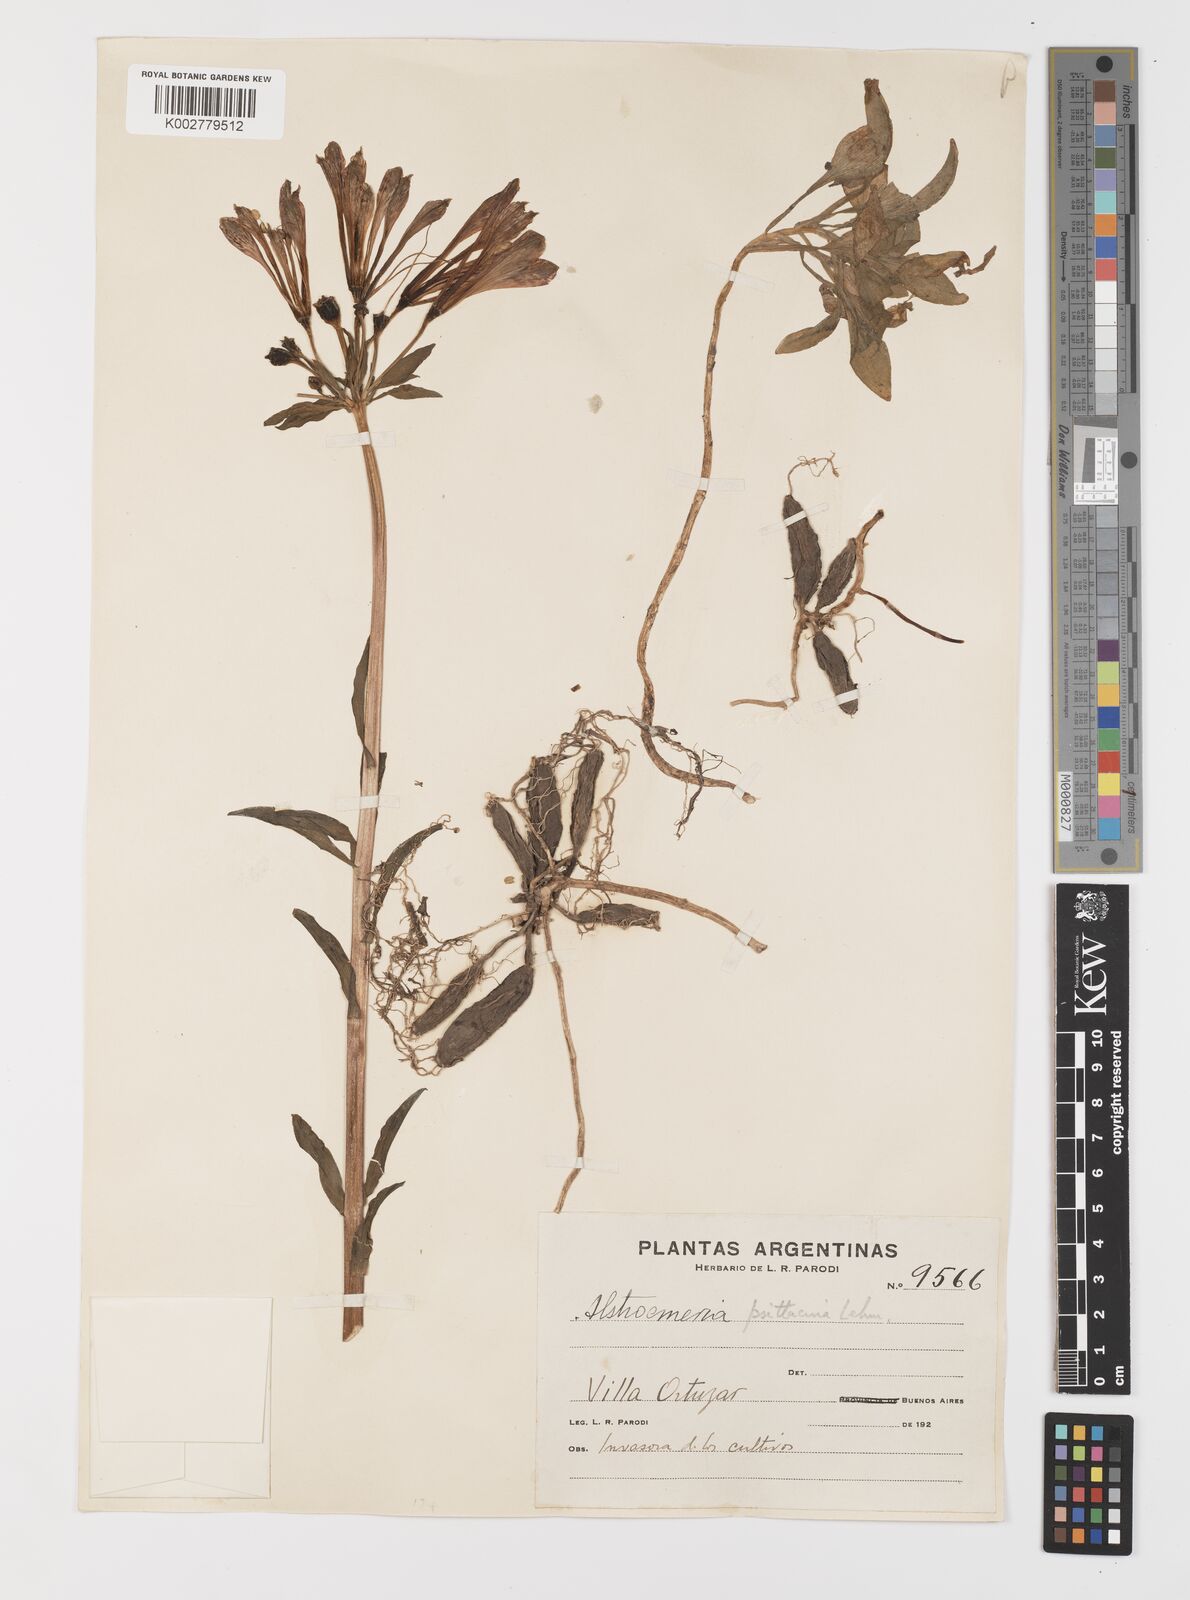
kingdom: Plantae
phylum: Tracheophyta
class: Liliopsida
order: Liliales
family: Alstroemeriaceae
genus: Alstroemeria
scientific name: Alstroemeria psittacina
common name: Peruvian-lily
